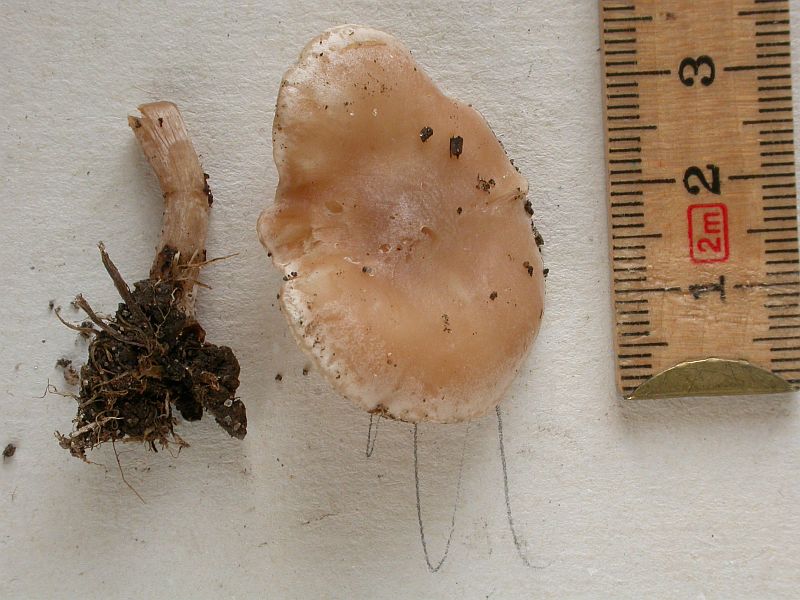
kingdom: Fungi
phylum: Basidiomycota
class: Agaricomycetes
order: Agaricales
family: Tricholomataceae
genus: Clitocybe
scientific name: Clitocybe rivulosa
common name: eng-tragthat
